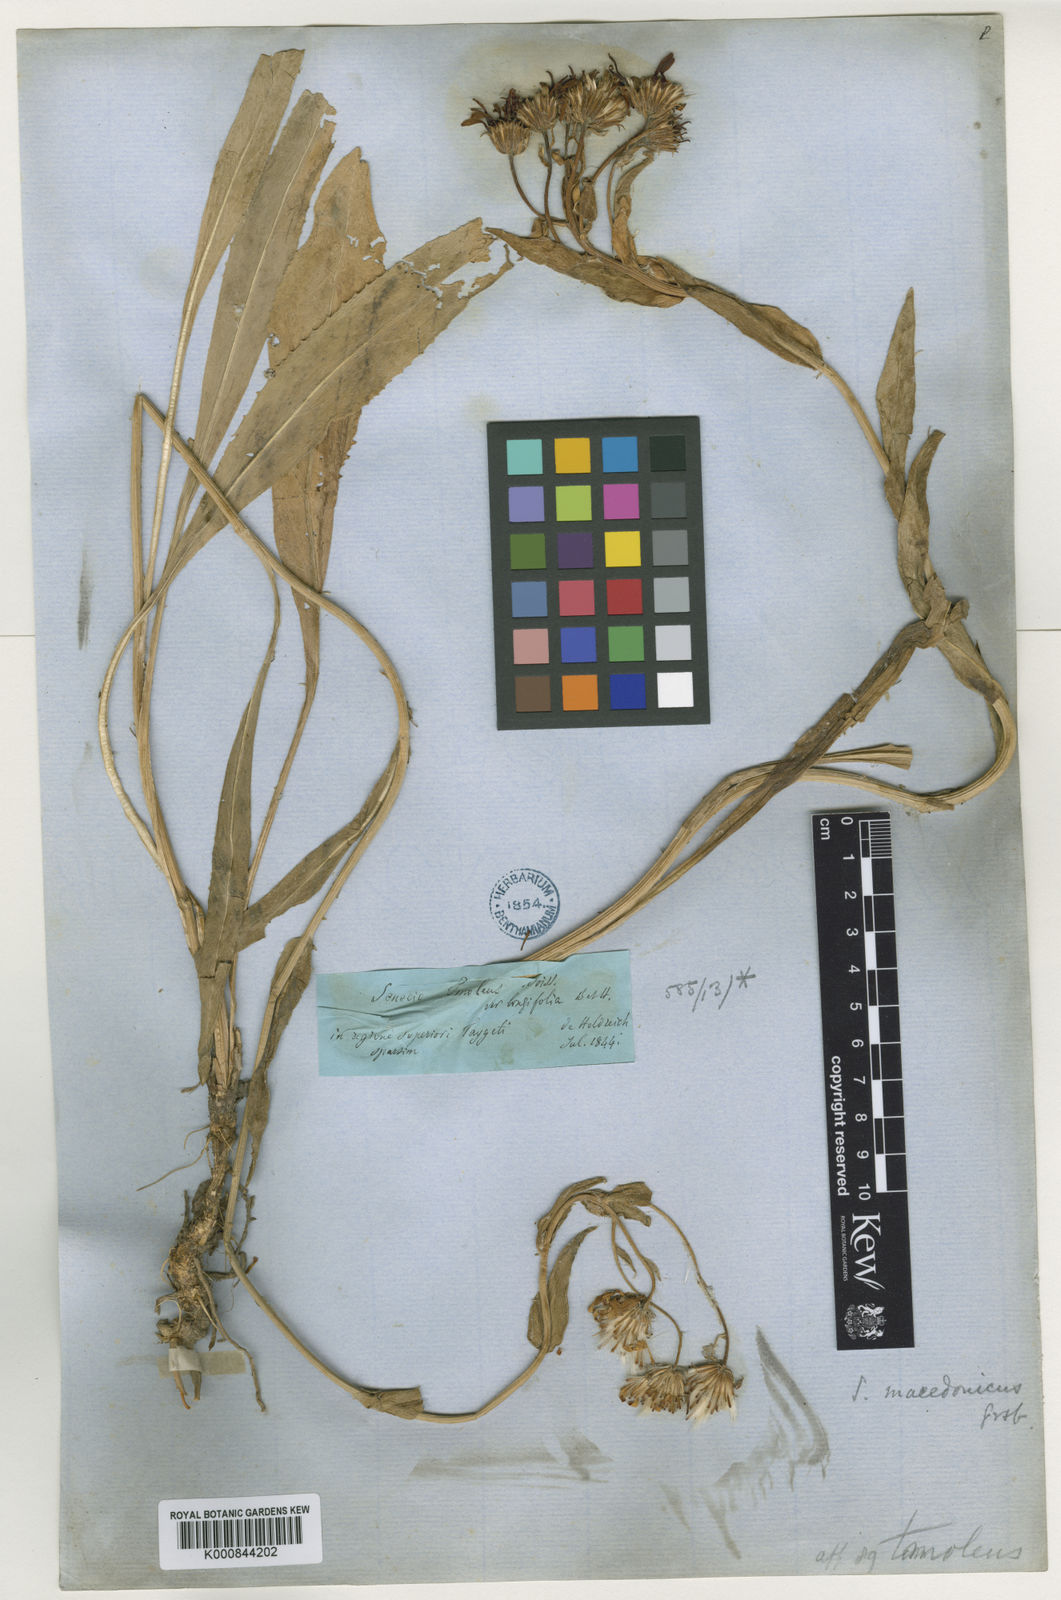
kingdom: Plantae
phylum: Tracheophyta
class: Magnoliopsida
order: Asterales
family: Asteraceae
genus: Senecio
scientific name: Senecio macedonicus
